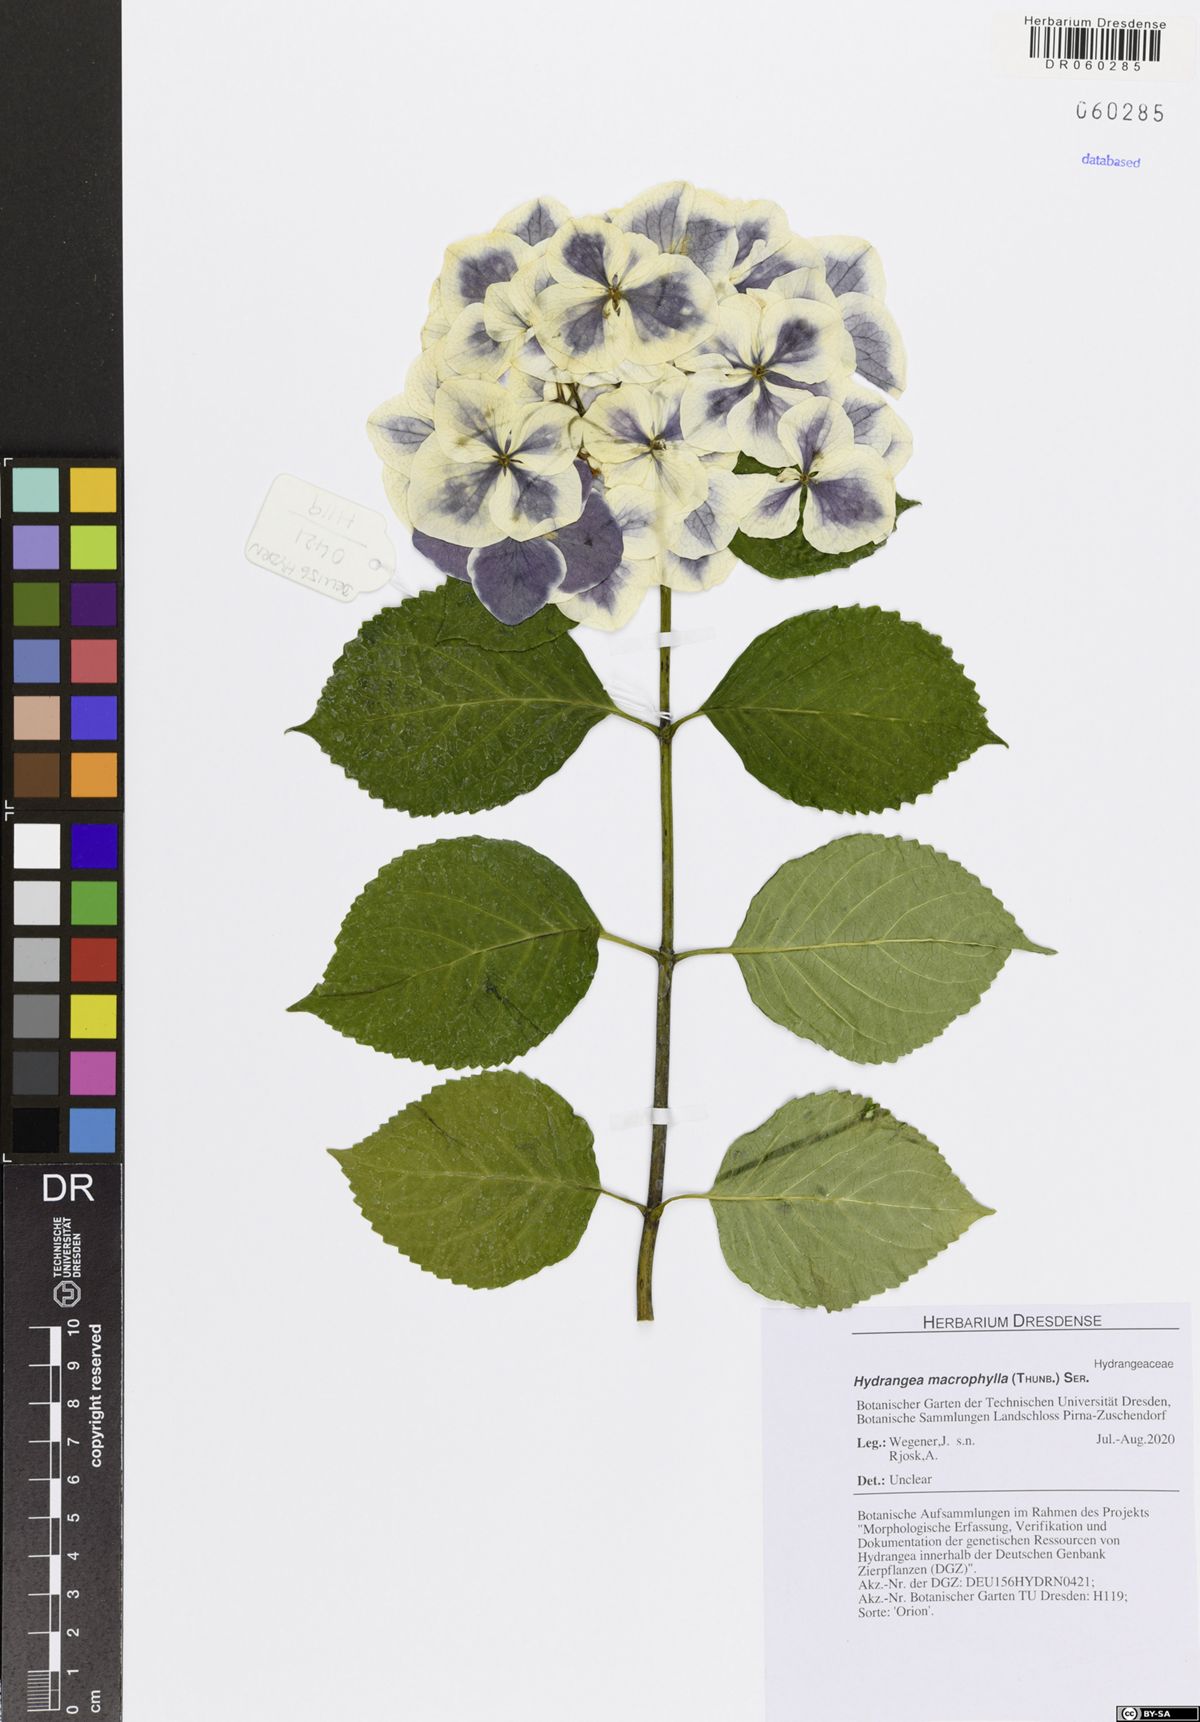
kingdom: Plantae
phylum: Tracheophyta
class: Magnoliopsida
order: Cornales
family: Hydrangeaceae
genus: Hydrangea
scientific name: Hydrangea macrophylla
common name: Hydrangea
